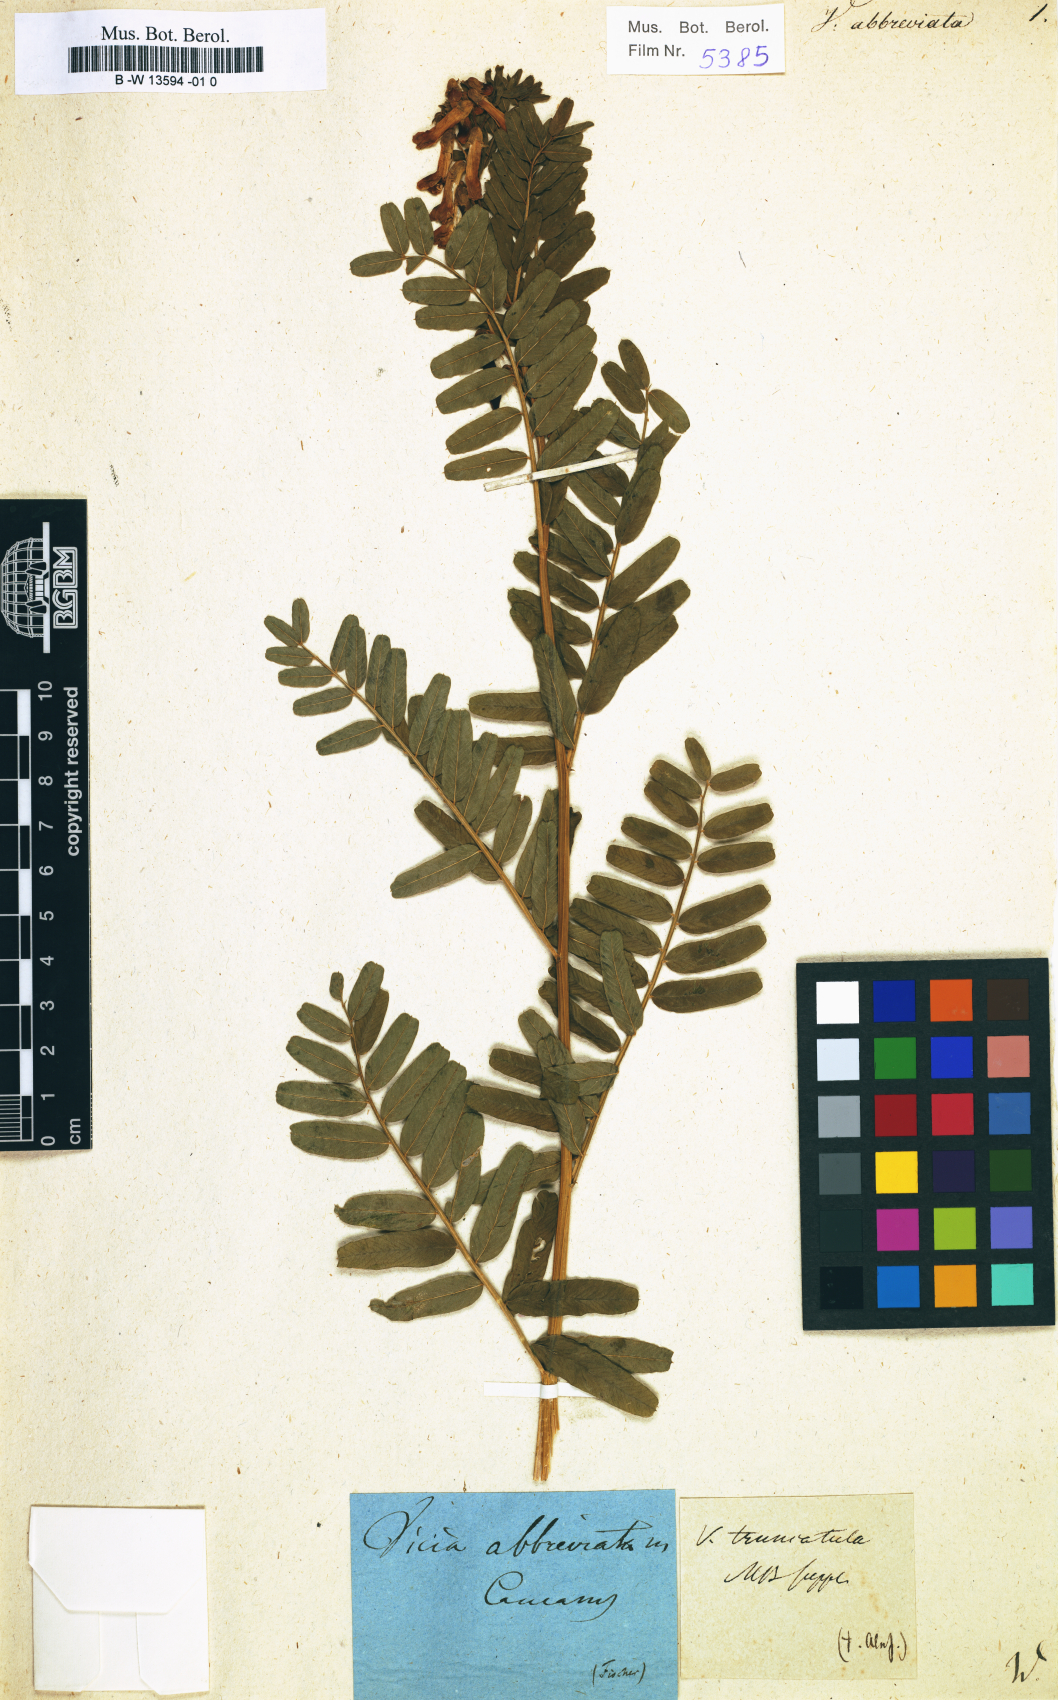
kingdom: Plantae
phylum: Tracheophyta
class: Magnoliopsida
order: Fabales
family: Fabaceae
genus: Vicia
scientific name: Vicia abbreviata
